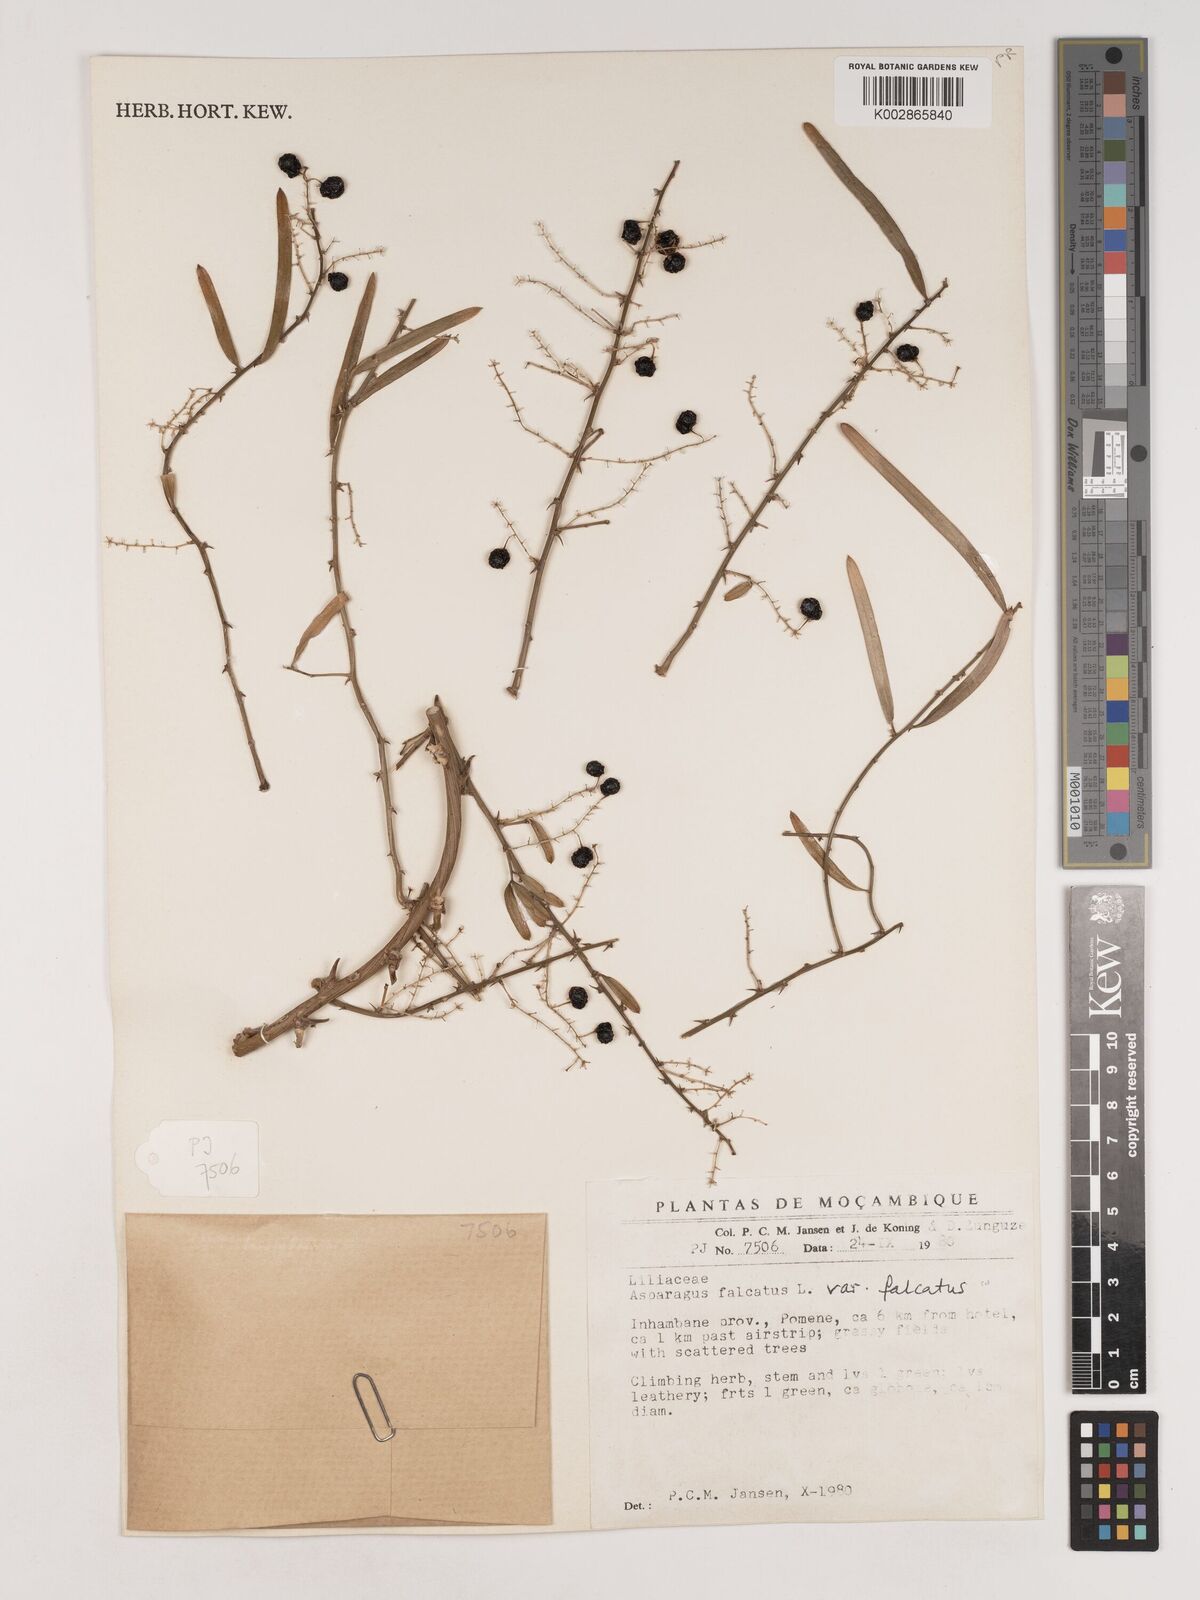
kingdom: Plantae
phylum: Tracheophyta
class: Liliopsida
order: Asparagales
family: Asparagaceae
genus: Asparagus
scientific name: Asparagus falcatus
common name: Asparagus
